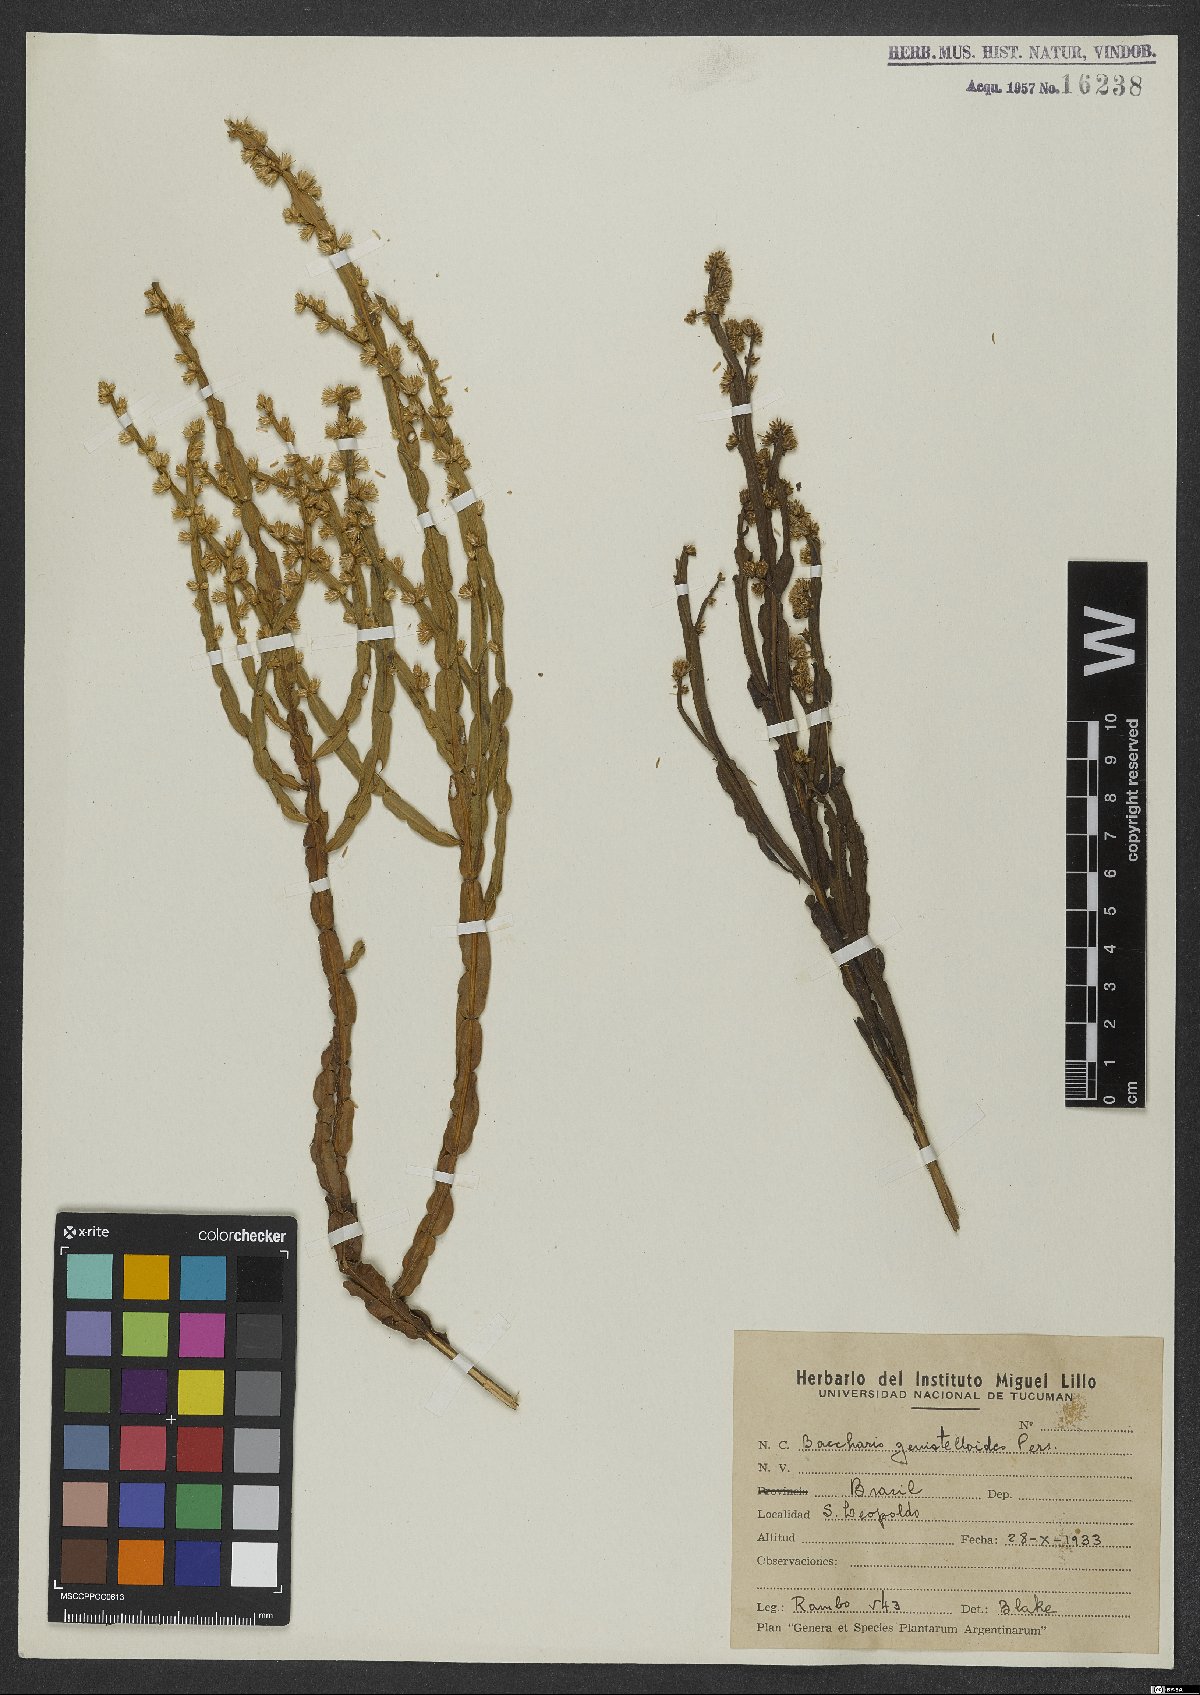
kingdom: Plantae
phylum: Tracheophyta
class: Magnoliopsida
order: Asterales
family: Asteraceae
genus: Baccharis
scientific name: Baccharis genistelloides
